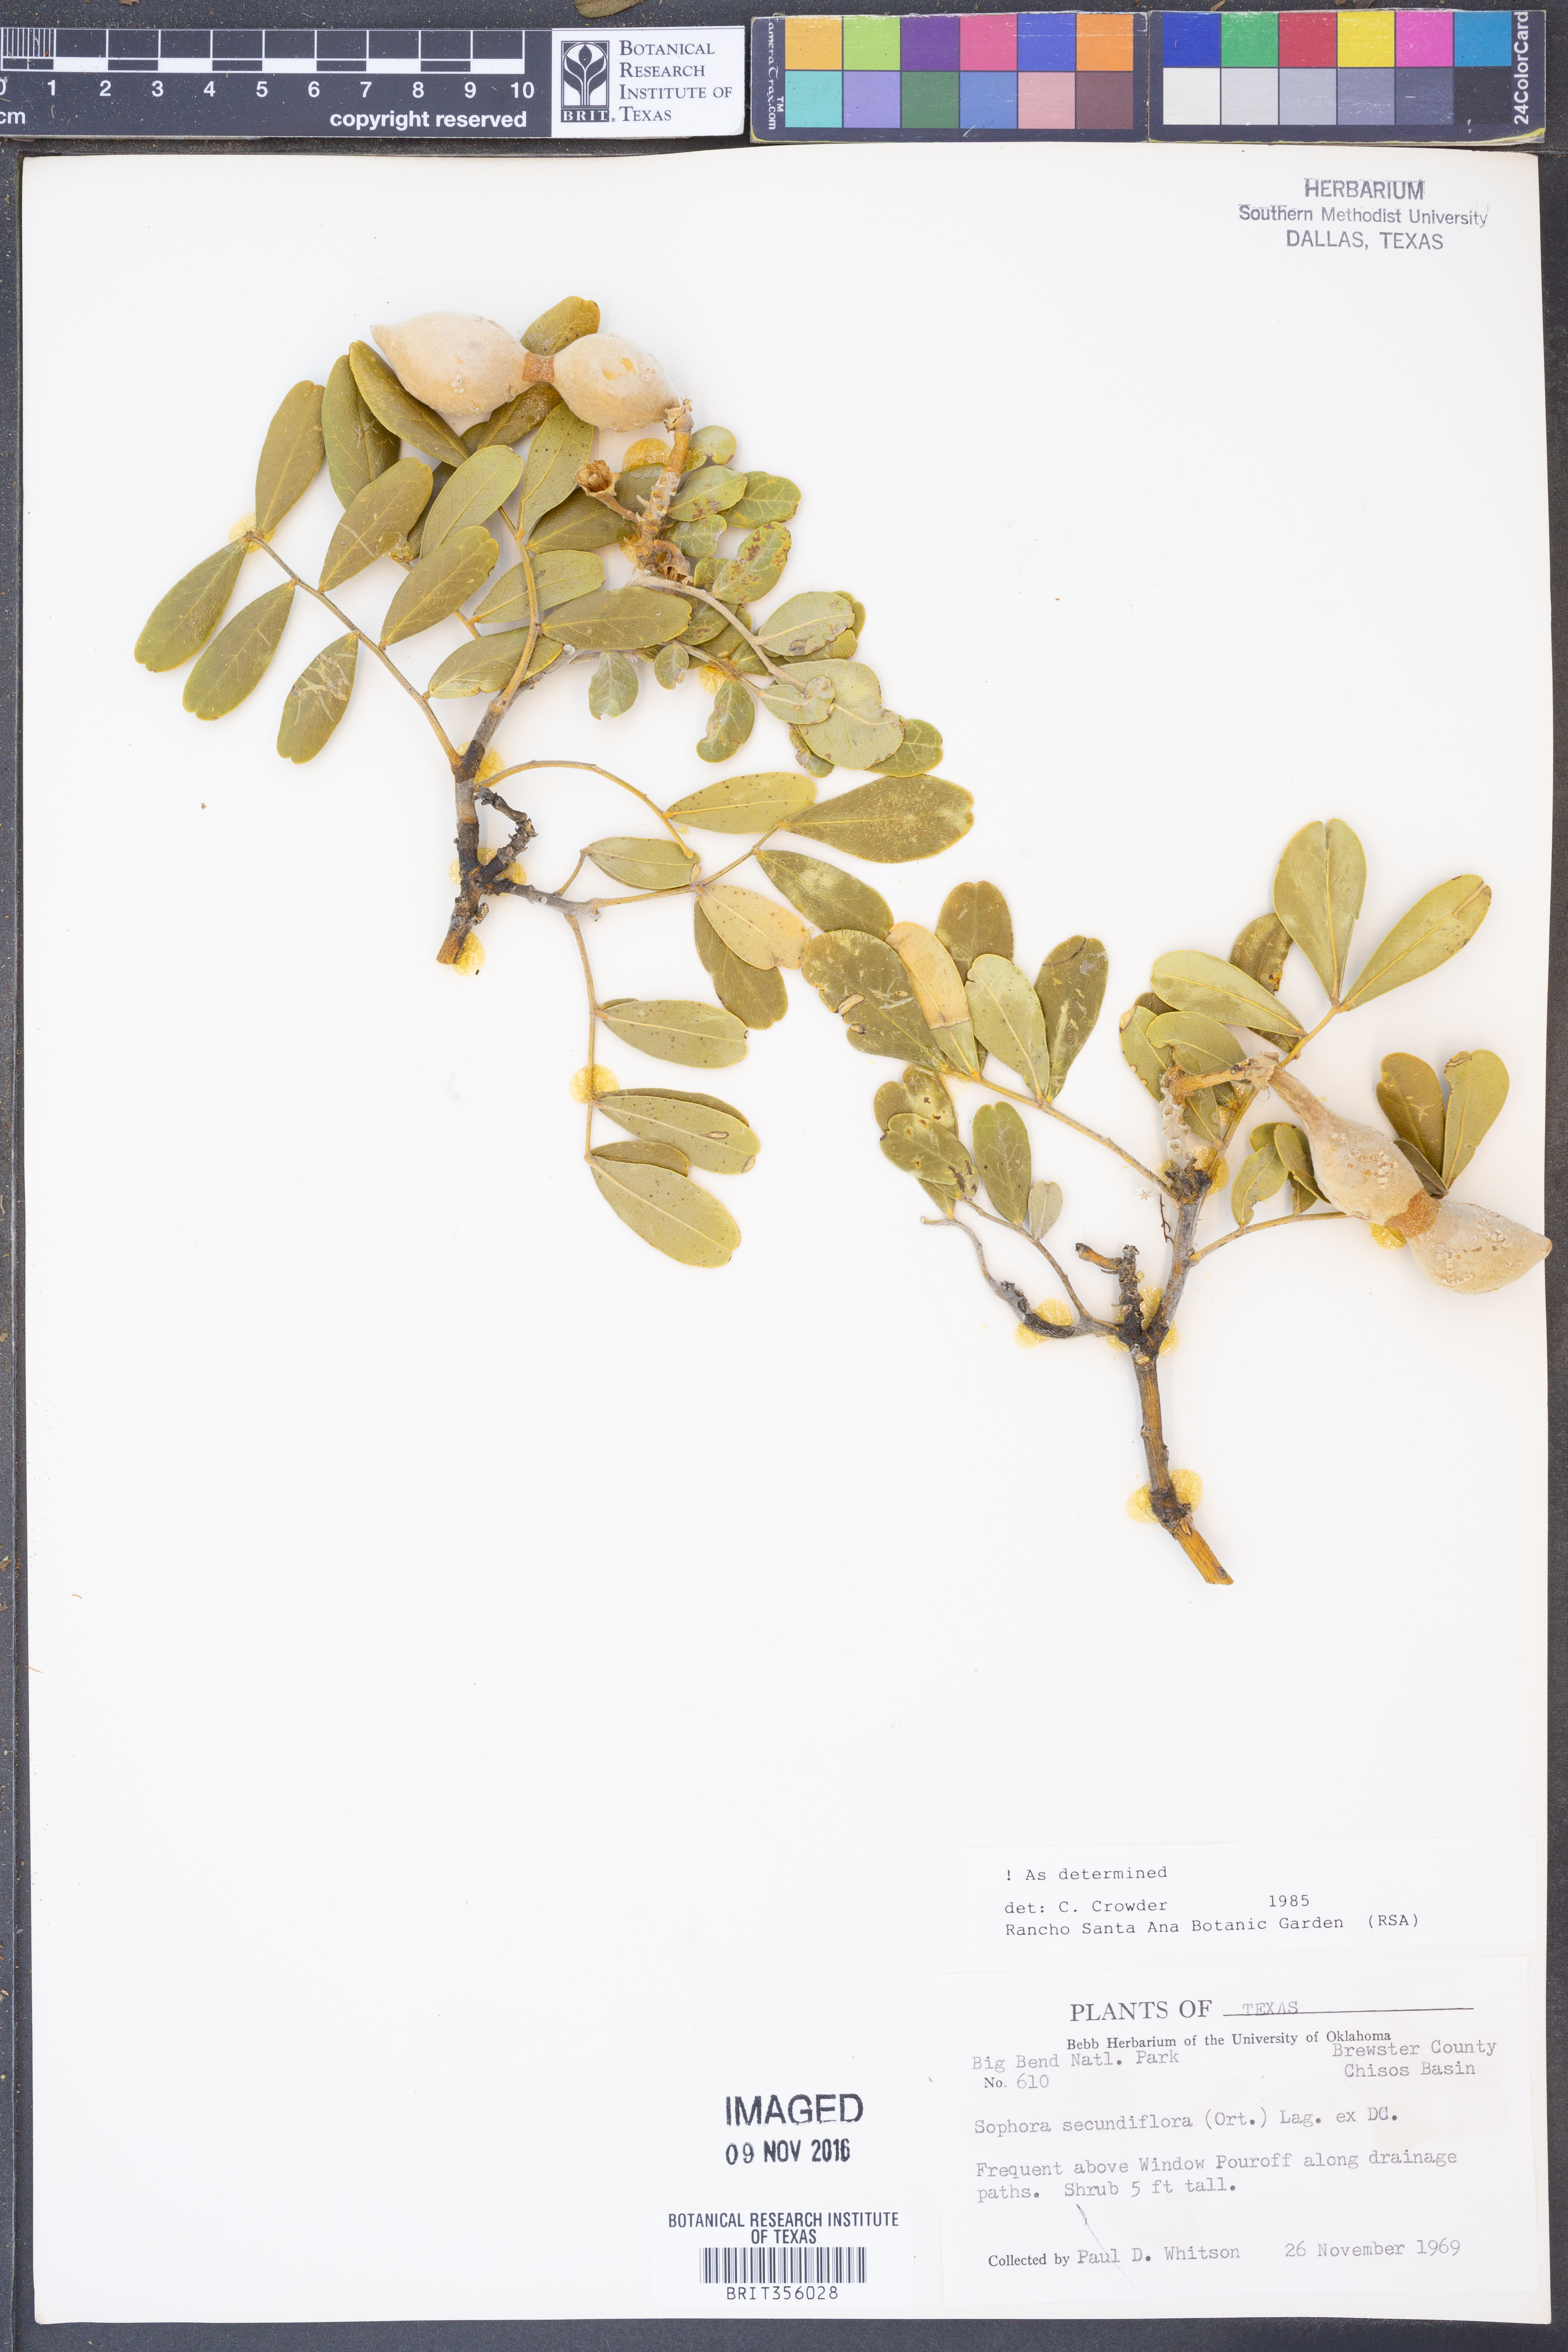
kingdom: Plantae
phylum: Tracheophyta
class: Magnoliopsida
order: Fabales
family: Fabaceae
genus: Dermatophyllum
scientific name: Dermatophyllum secundiflorum
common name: Texas-mountain-laurel
